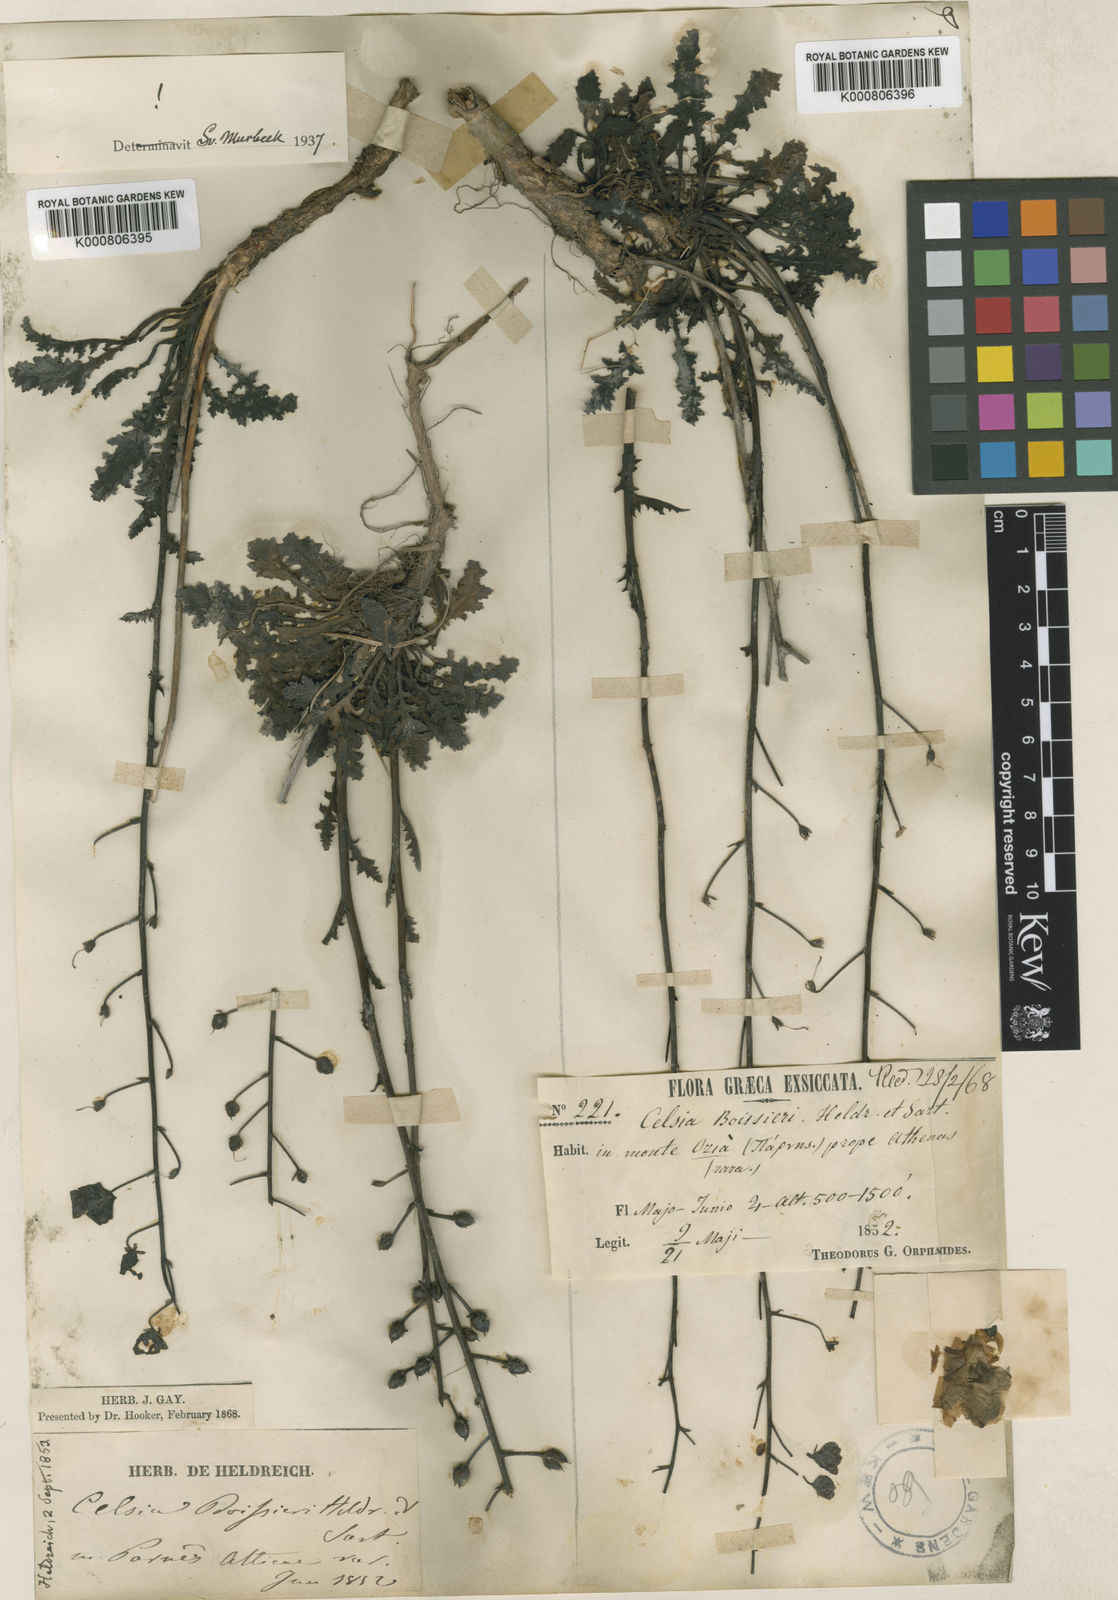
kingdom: Plantae
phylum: Tracheophyta
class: Magnoliopsida
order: Lamiales
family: Scrophulariaceae
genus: Verbascum
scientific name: Verbascum
